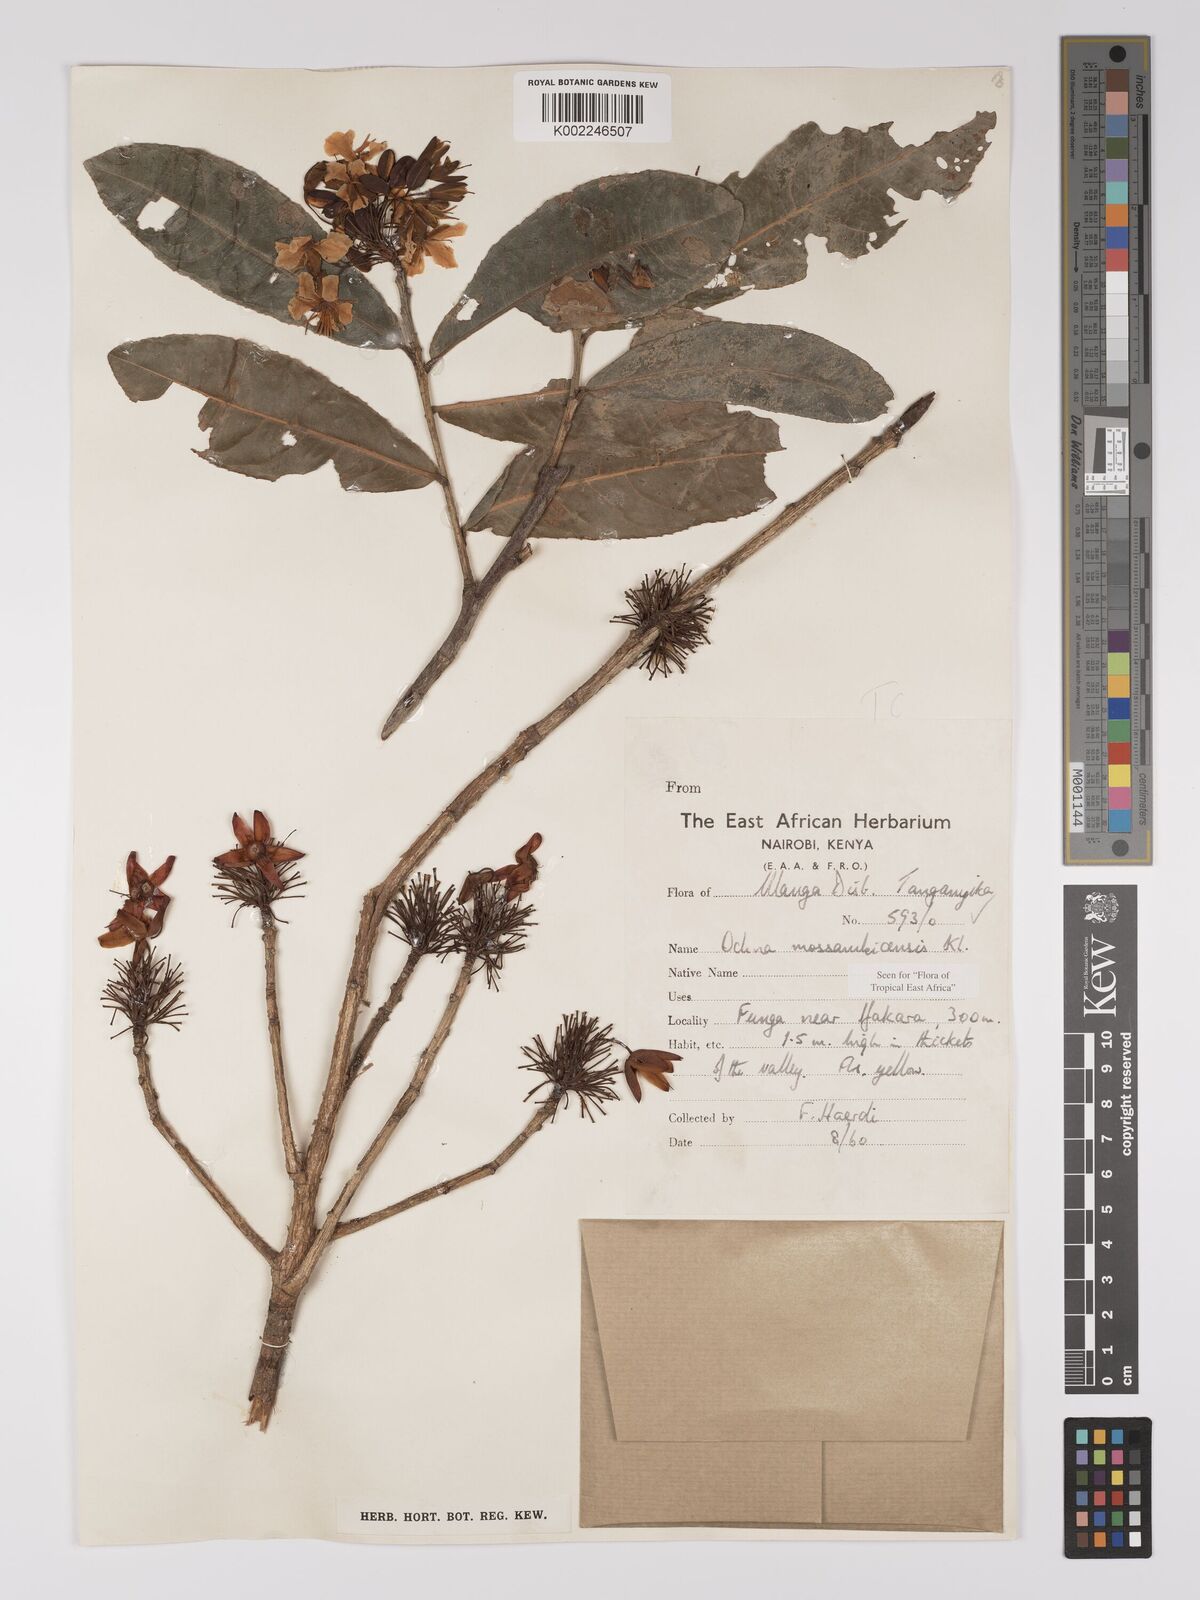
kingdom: Plantae
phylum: Tracheophyta
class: Magnoliopsida
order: Malpighiales
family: Ochnaceae
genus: Ochna
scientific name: Ochna atropurpurea
